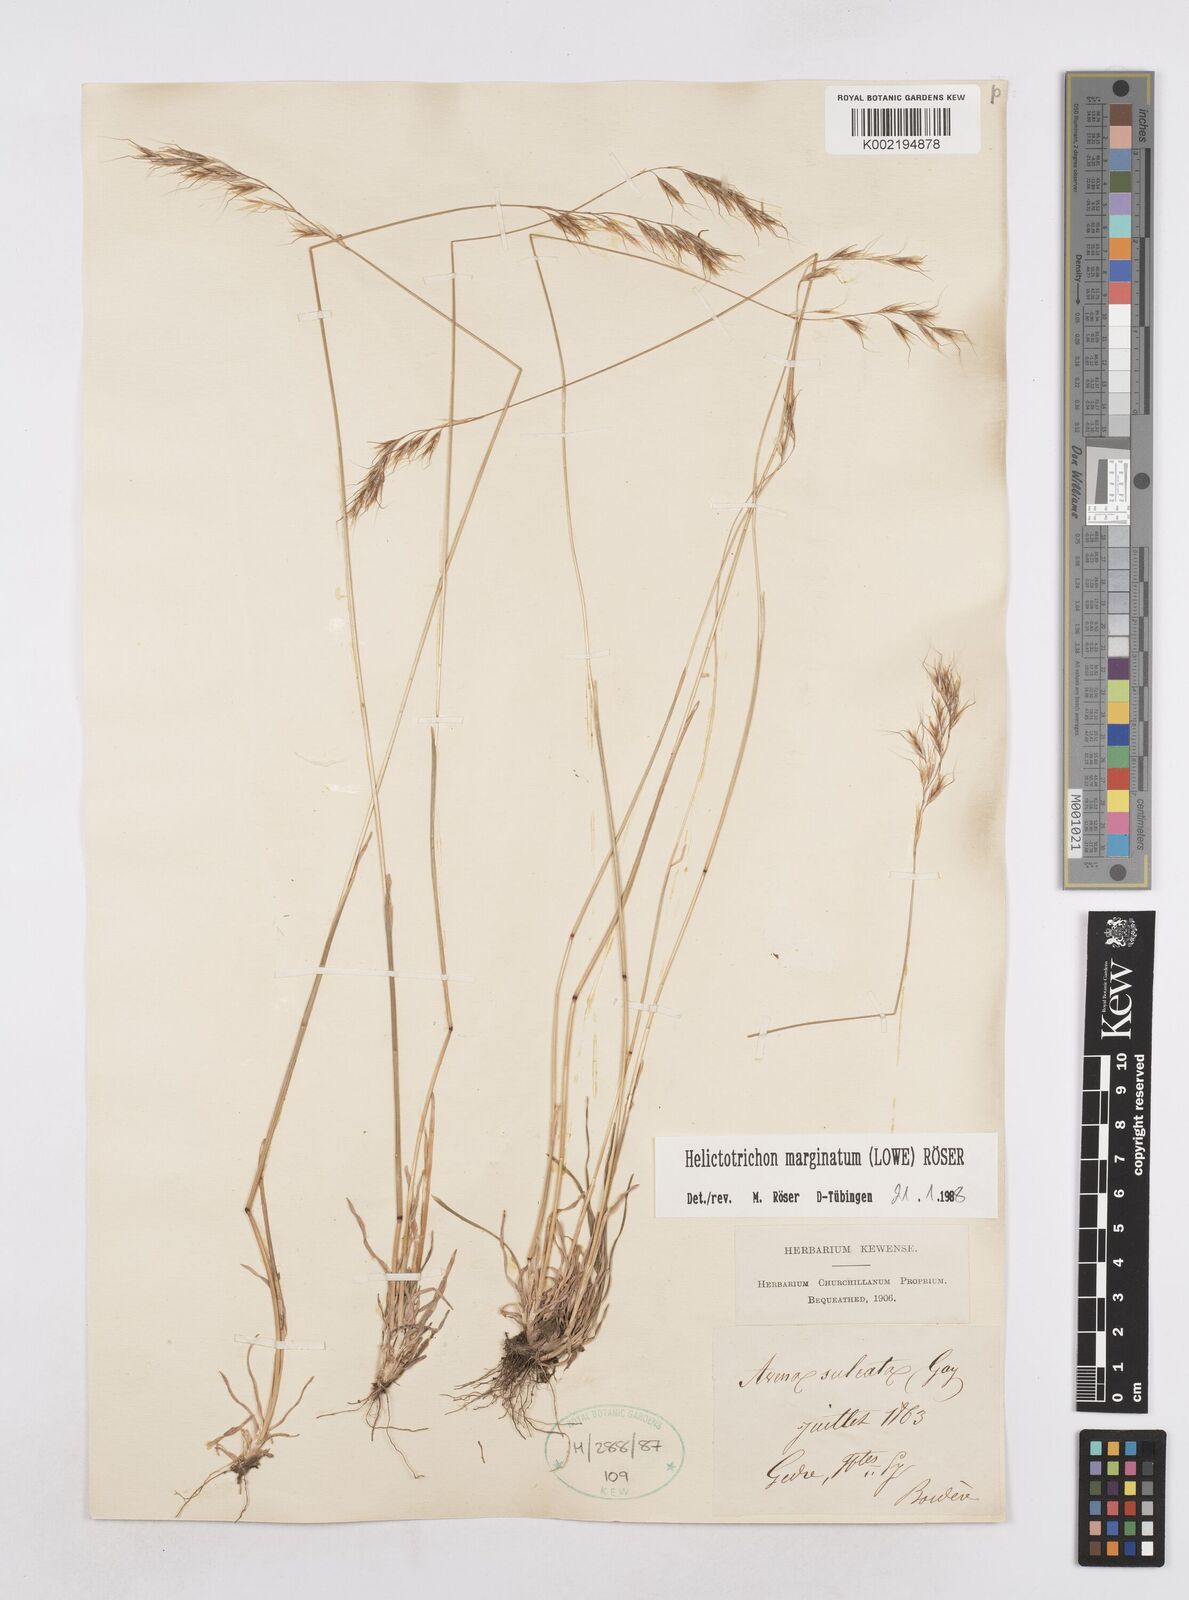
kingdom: Plantae
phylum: Tracheophyta
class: Liliopsida
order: Poales
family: Poaceae
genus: Helictotrichon
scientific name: Helictotrichon
